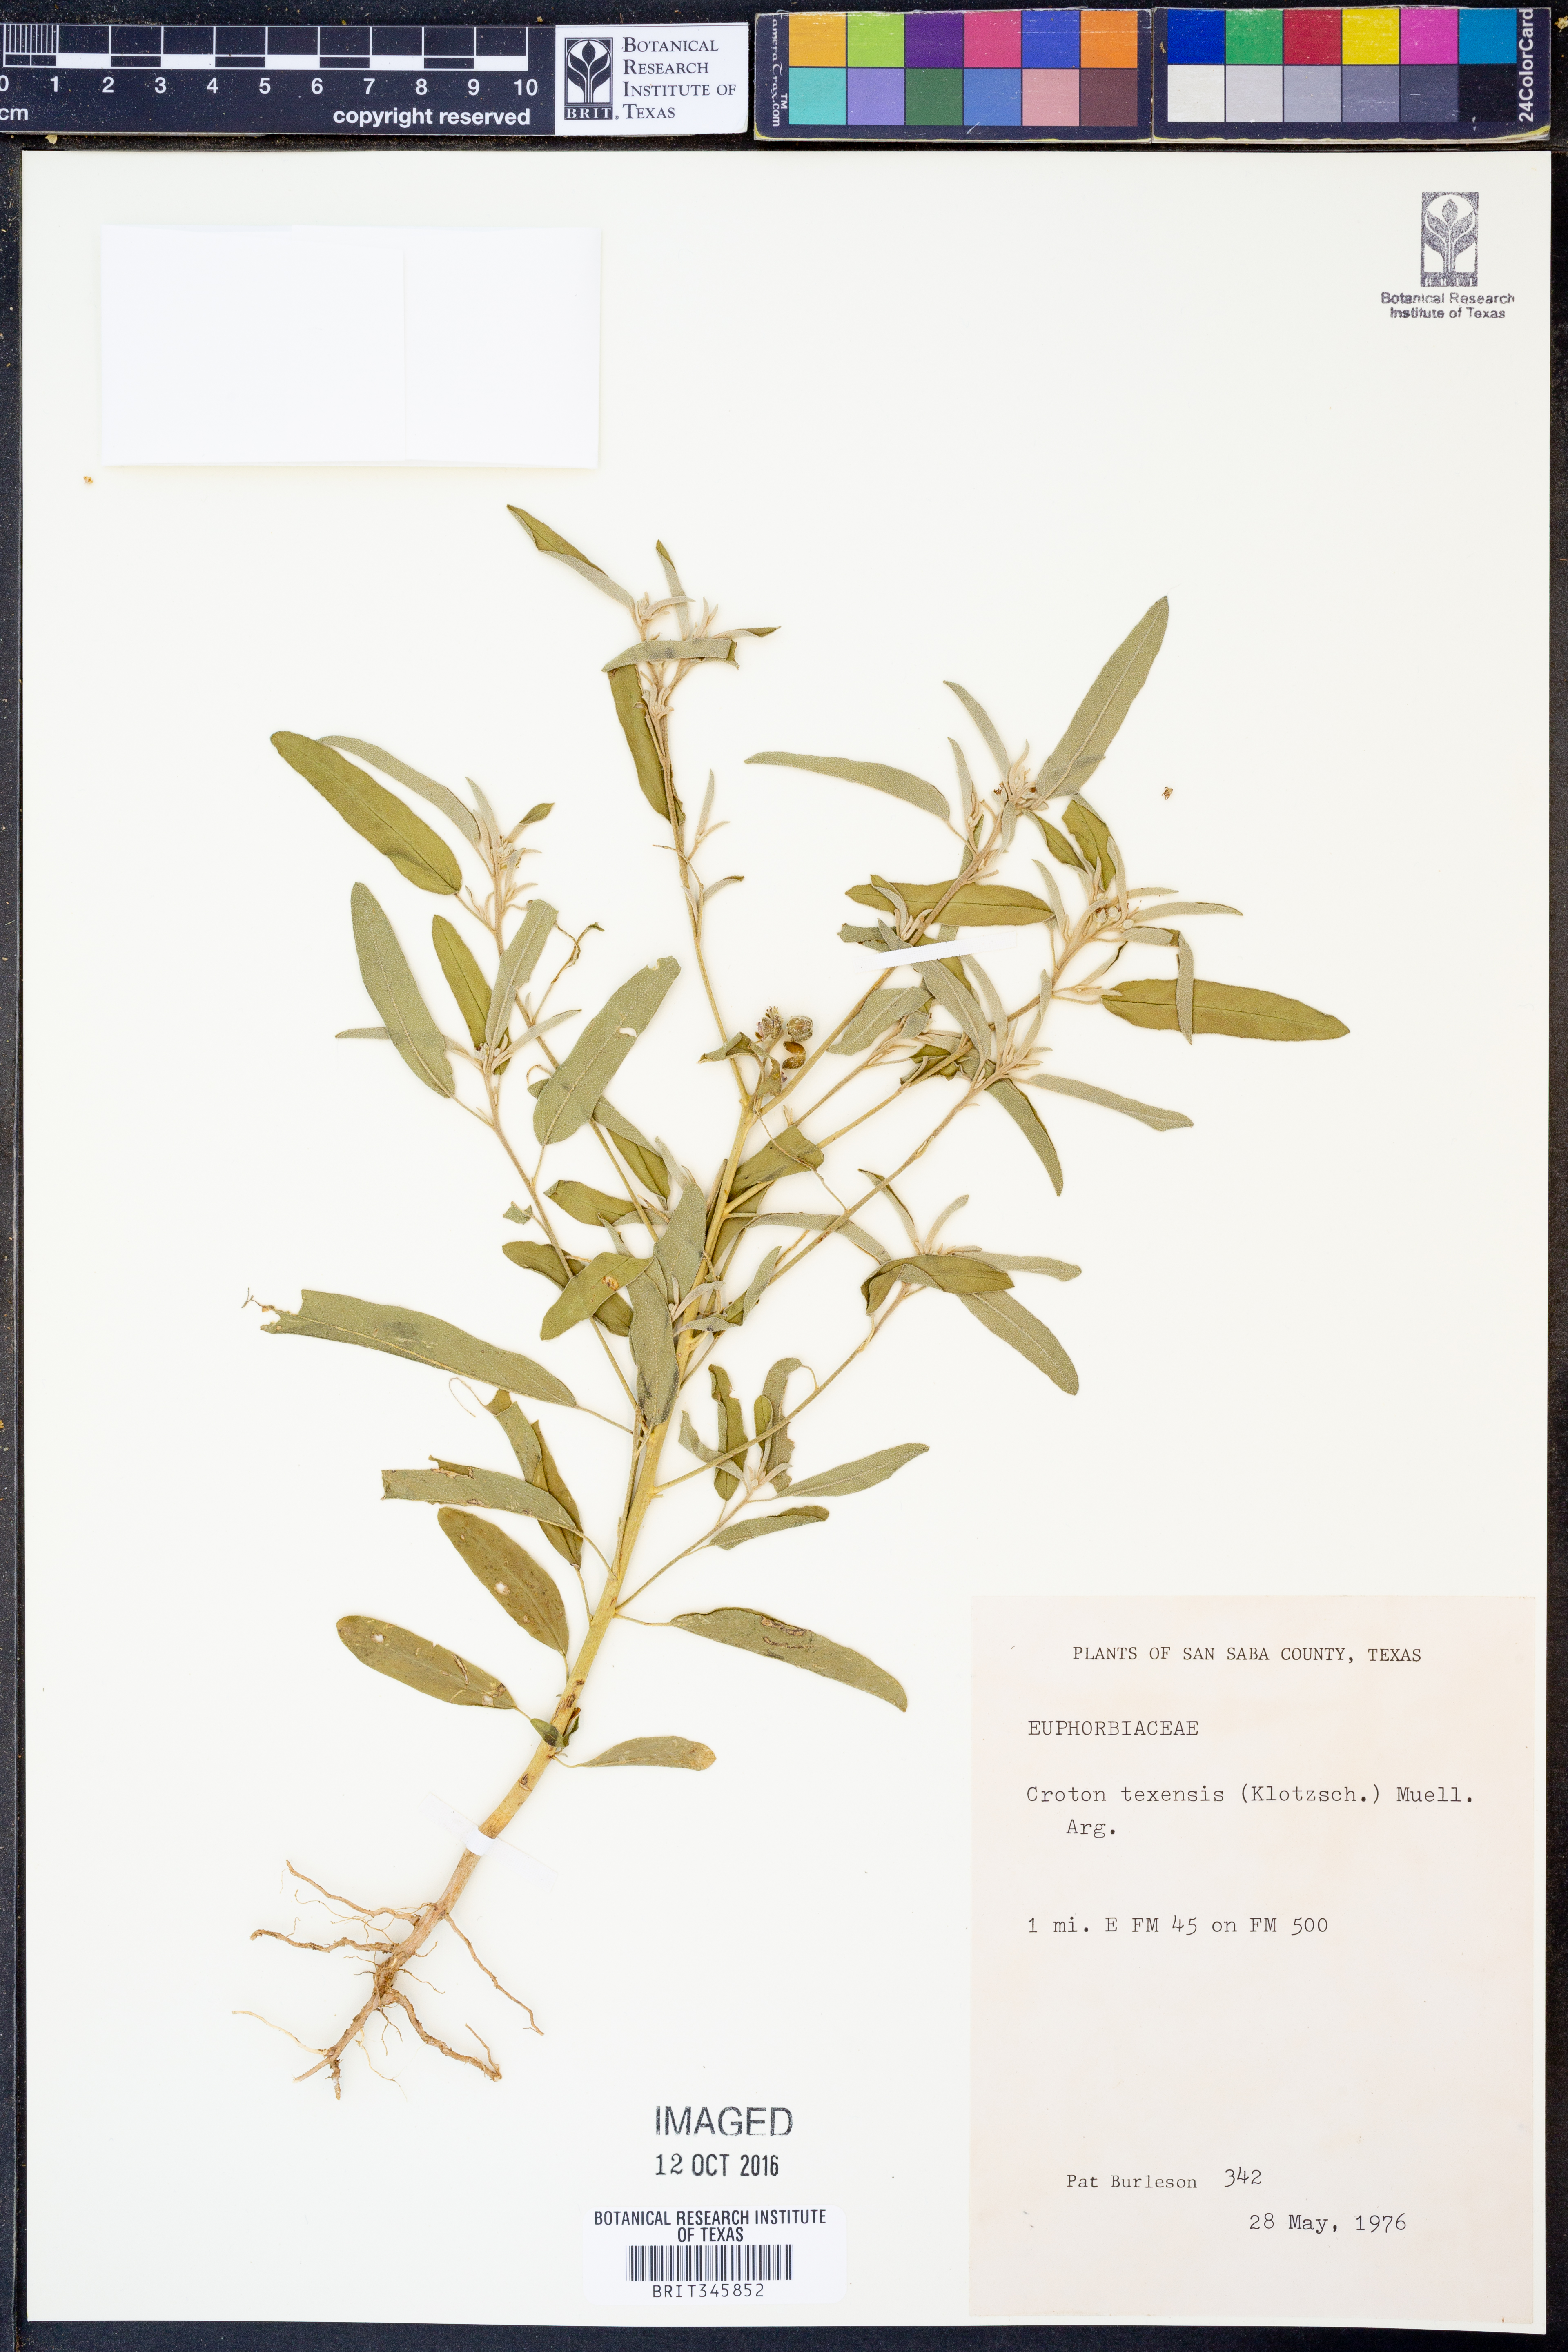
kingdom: Plantae
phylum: Tracheophyta
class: Magnoliopsida
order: Malpighiales
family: Euphorbiaceae
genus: Croton
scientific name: Croton texensis
